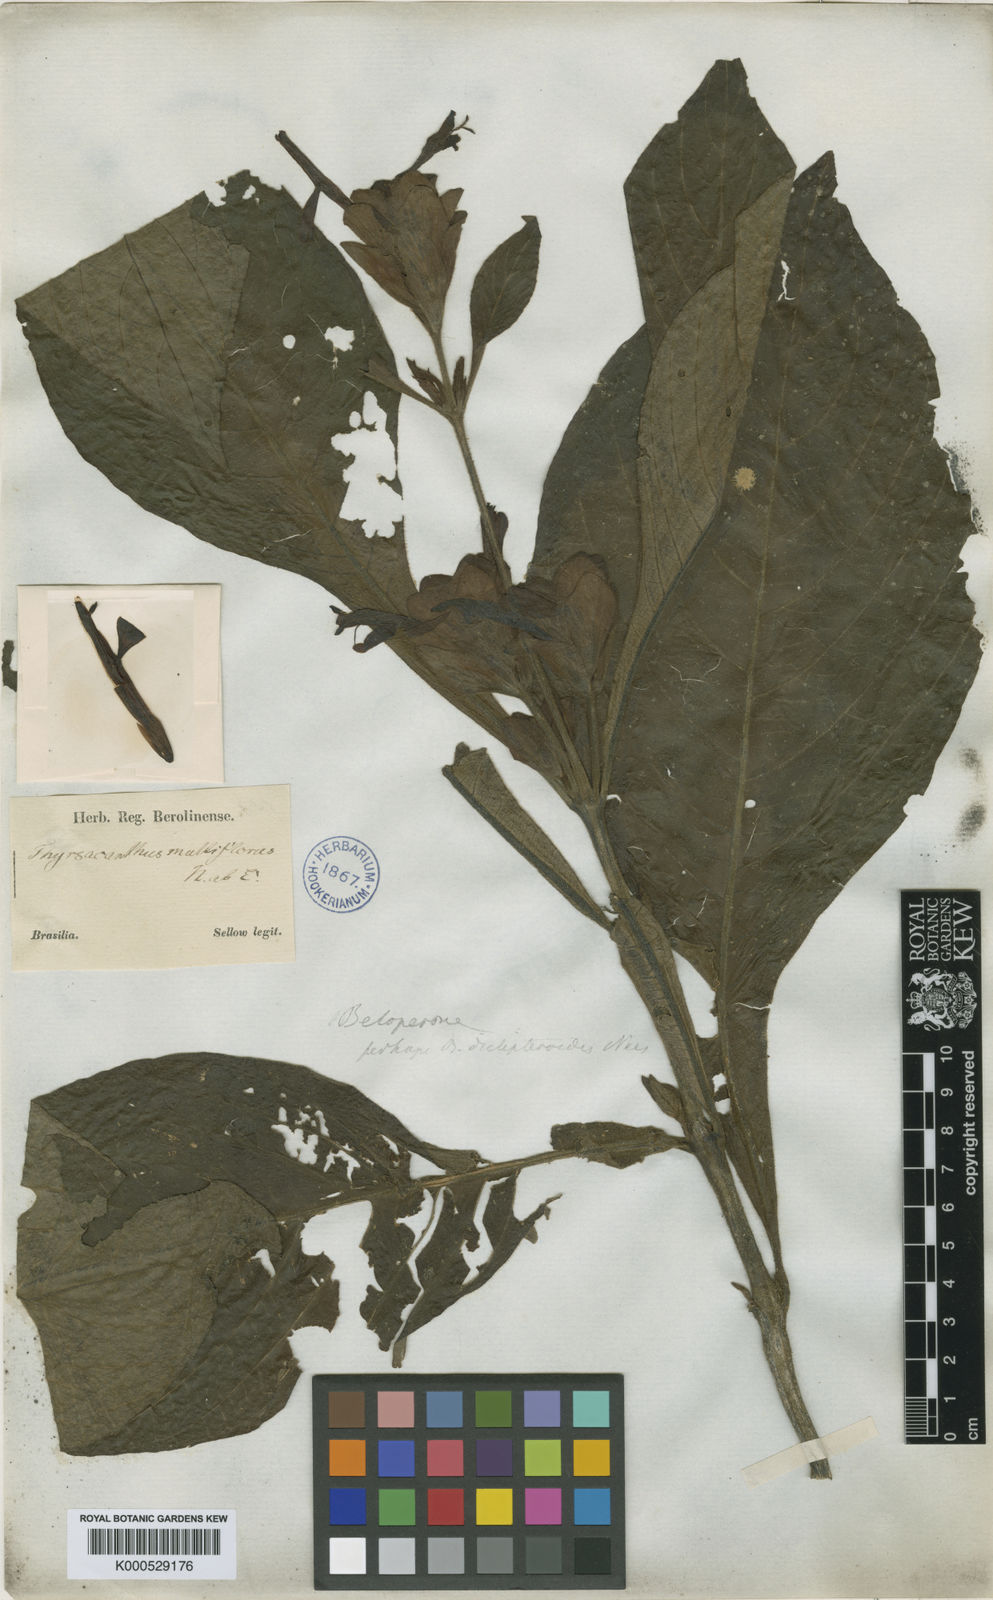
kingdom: Plantae
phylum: Tracheophyta
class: Magnoliopsida
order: Lamiales
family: Acanthaceae
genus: Justicia
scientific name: Justicia sellowiana
